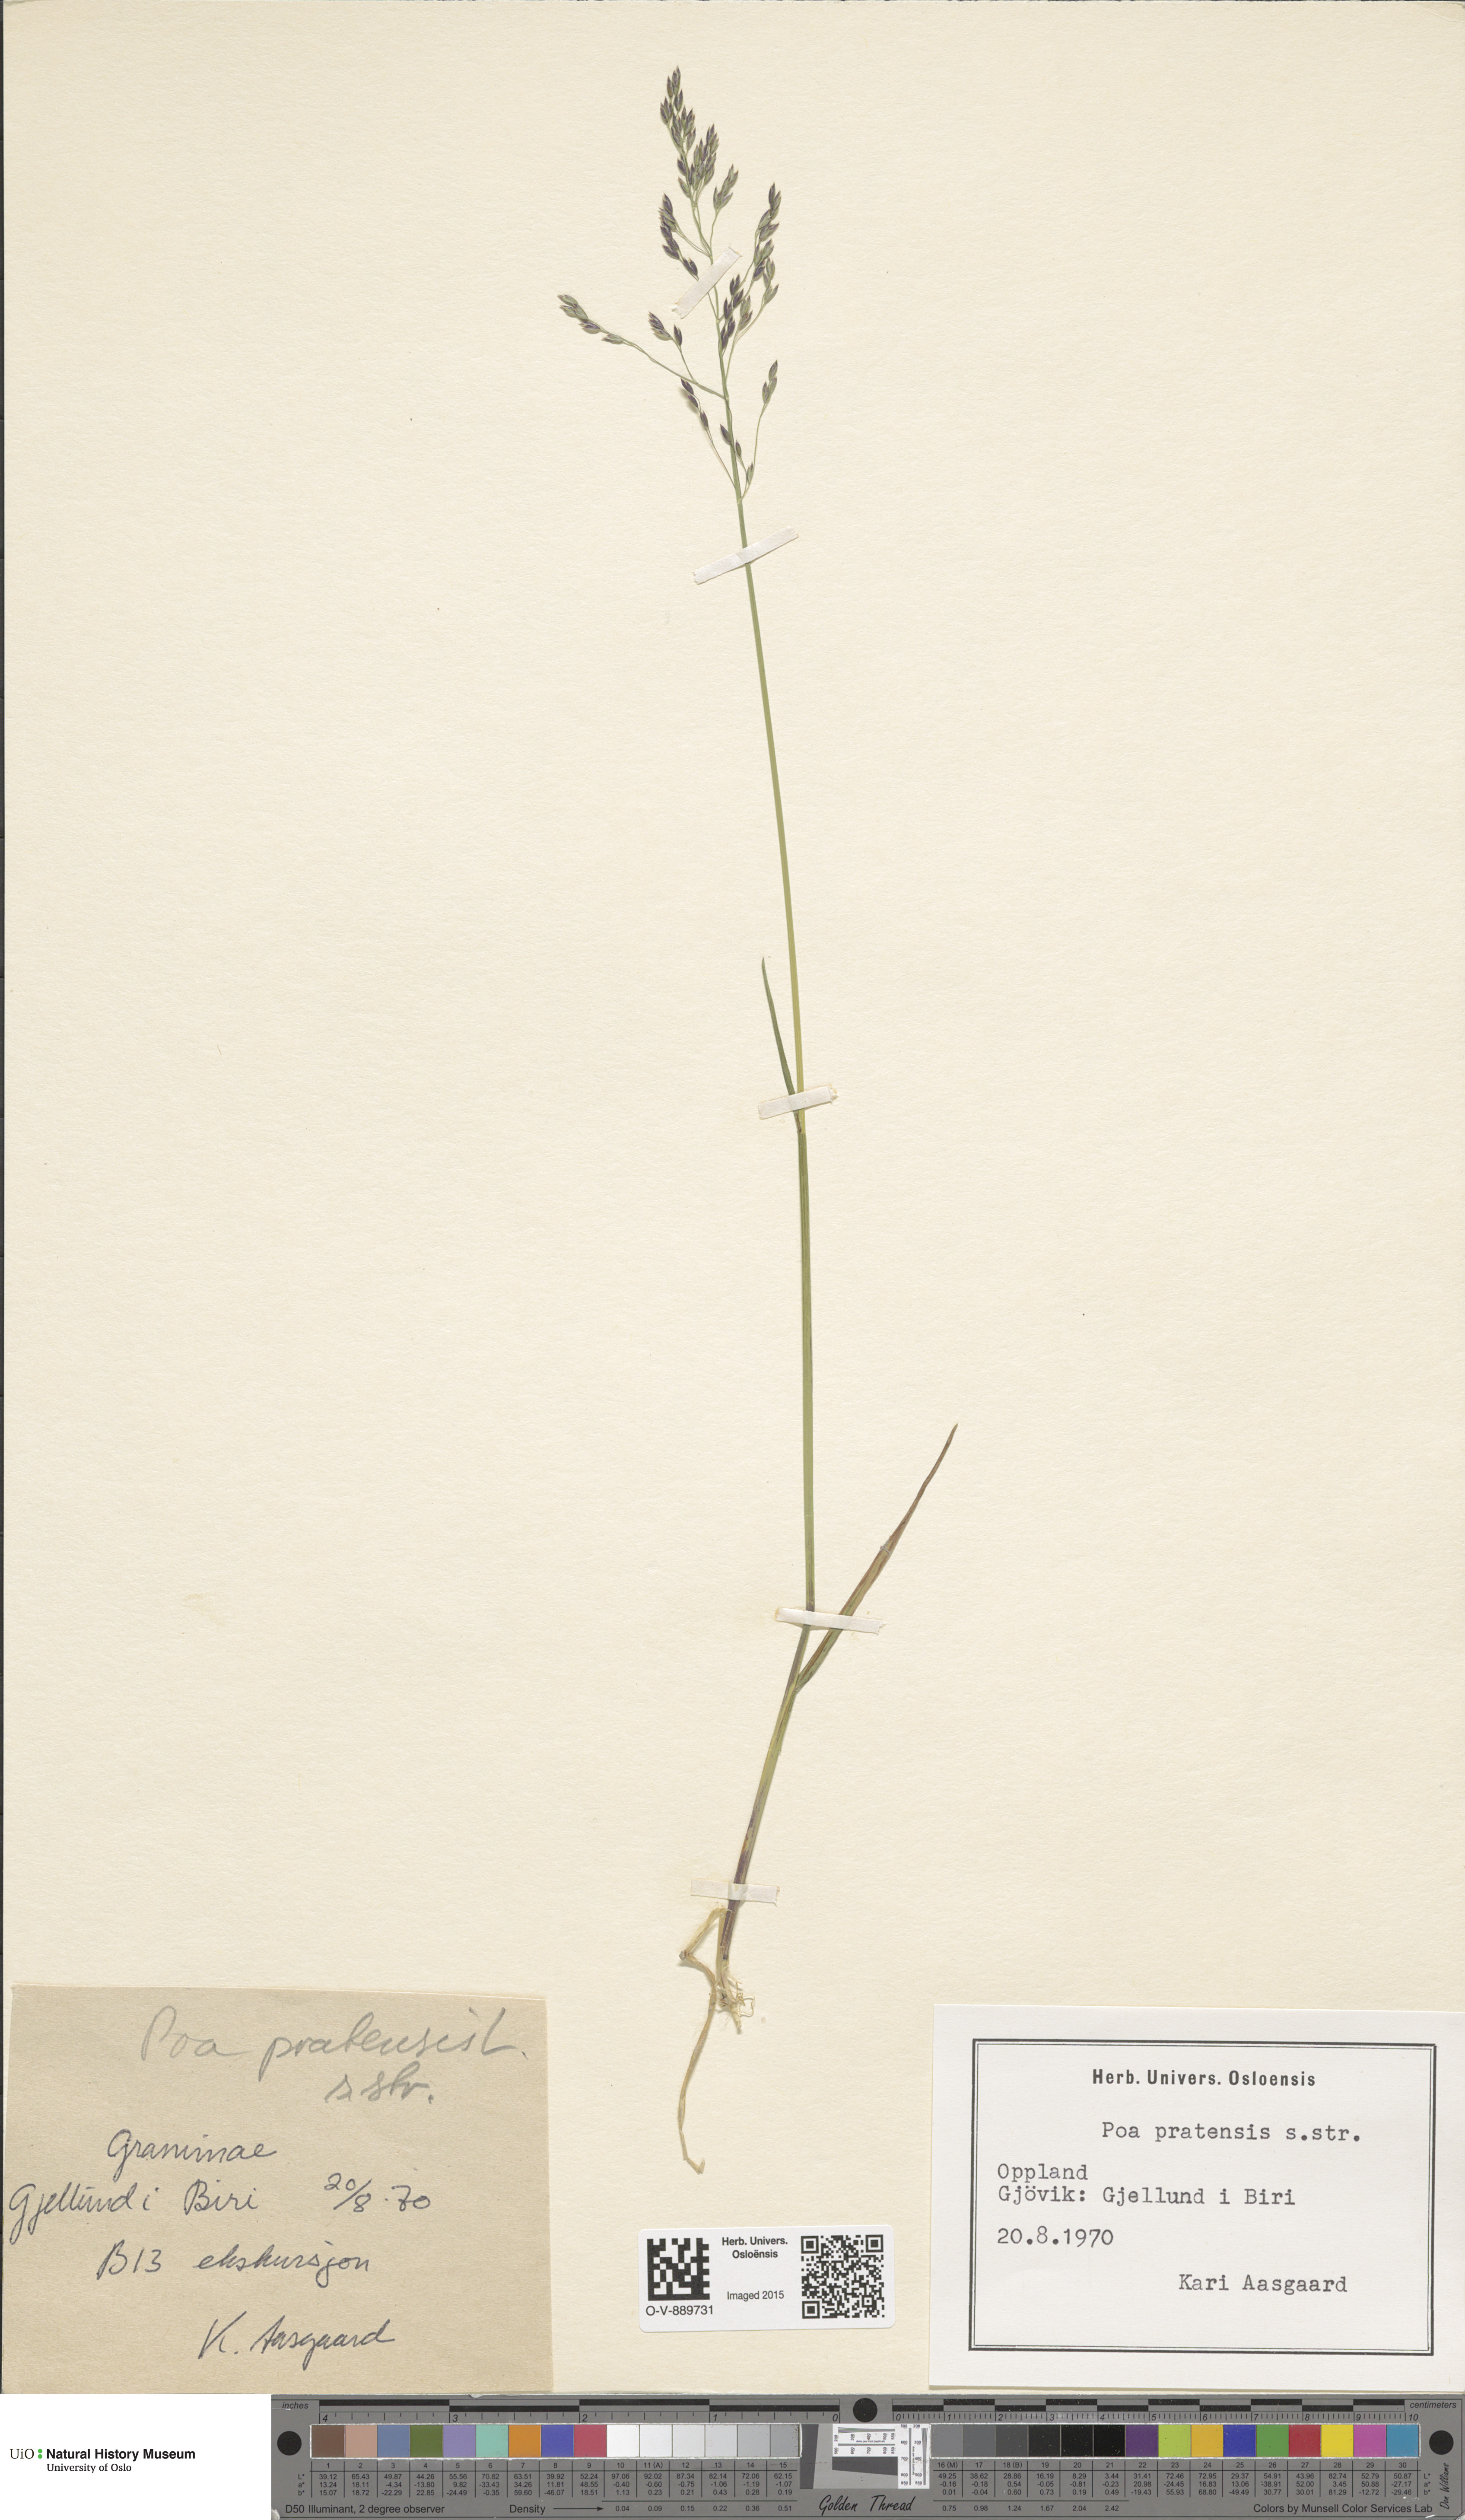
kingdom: Plantae
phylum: Tracheophyta
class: Liliopsida
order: Poales
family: Poaceae
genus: Poa
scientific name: Poa pratensis
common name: Kentucky bluegrass
